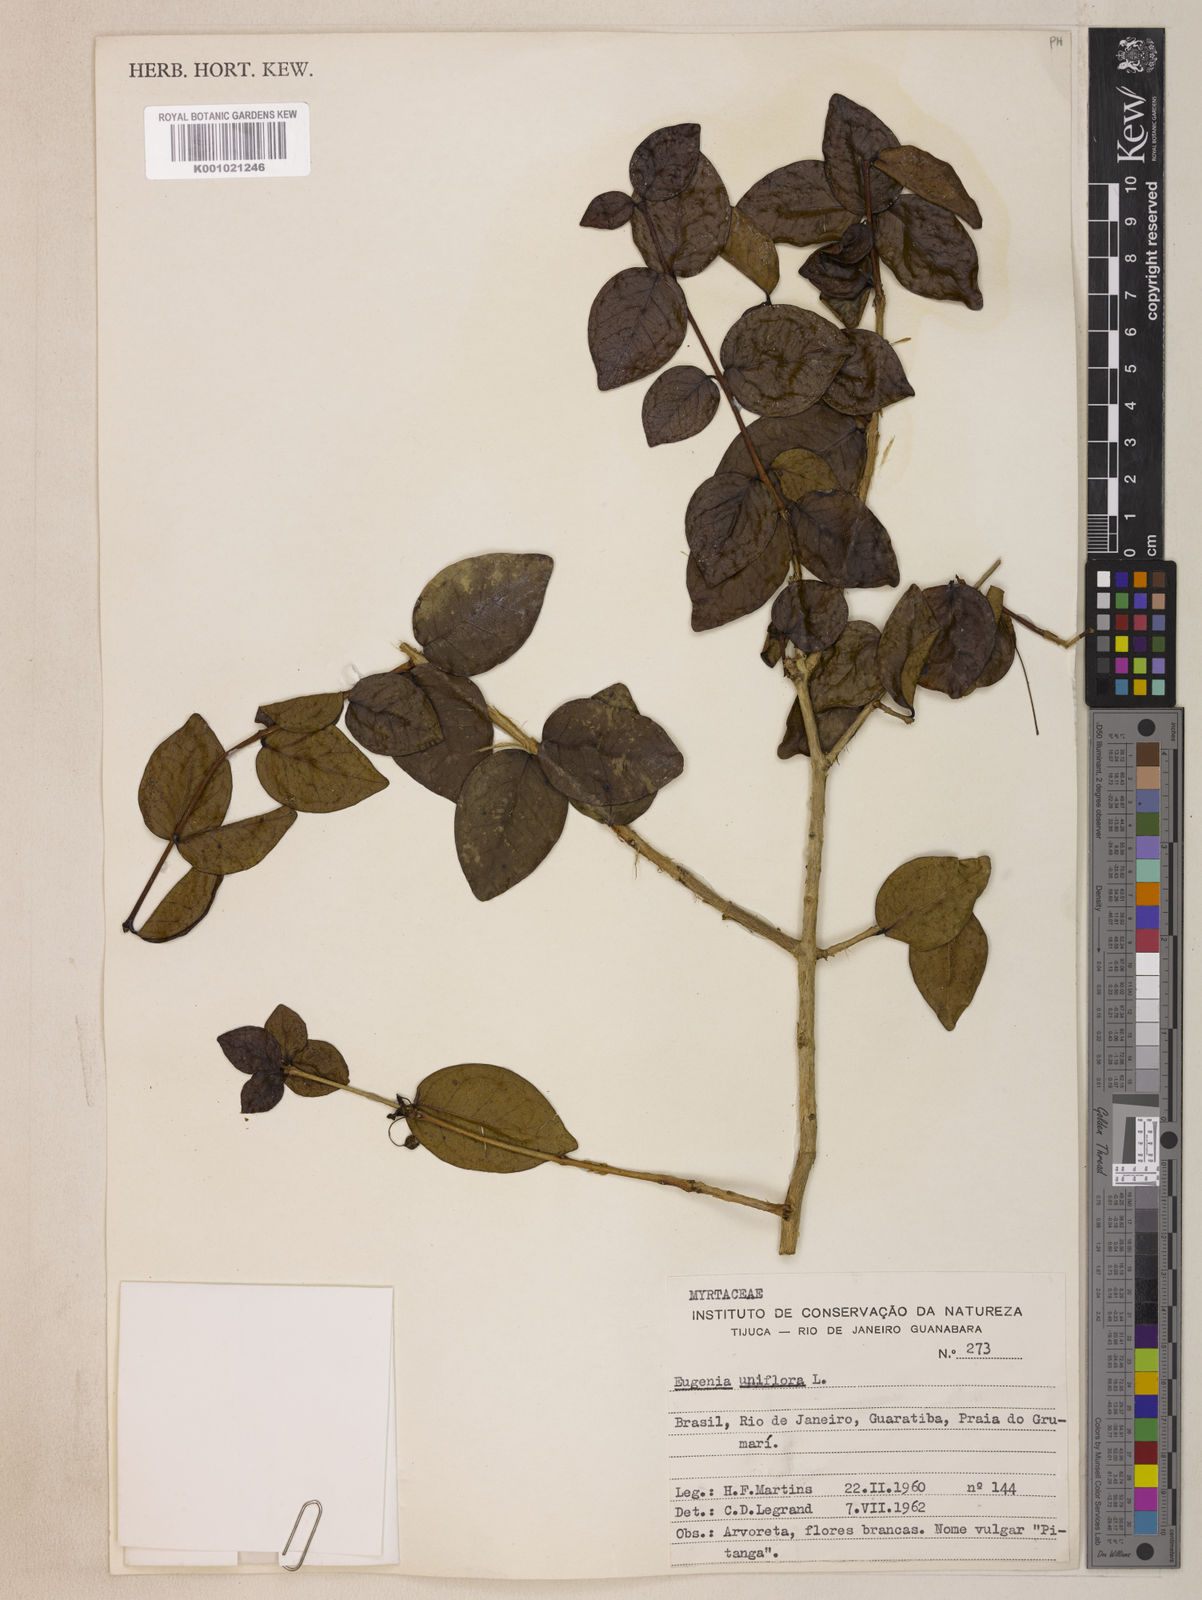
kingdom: Plantae
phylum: Tracheophyta
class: Magnoliopsida
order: Myrtales
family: Myrtaceae
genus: Eugenia
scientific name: Eugenia uniflora
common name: Surinam cherry
